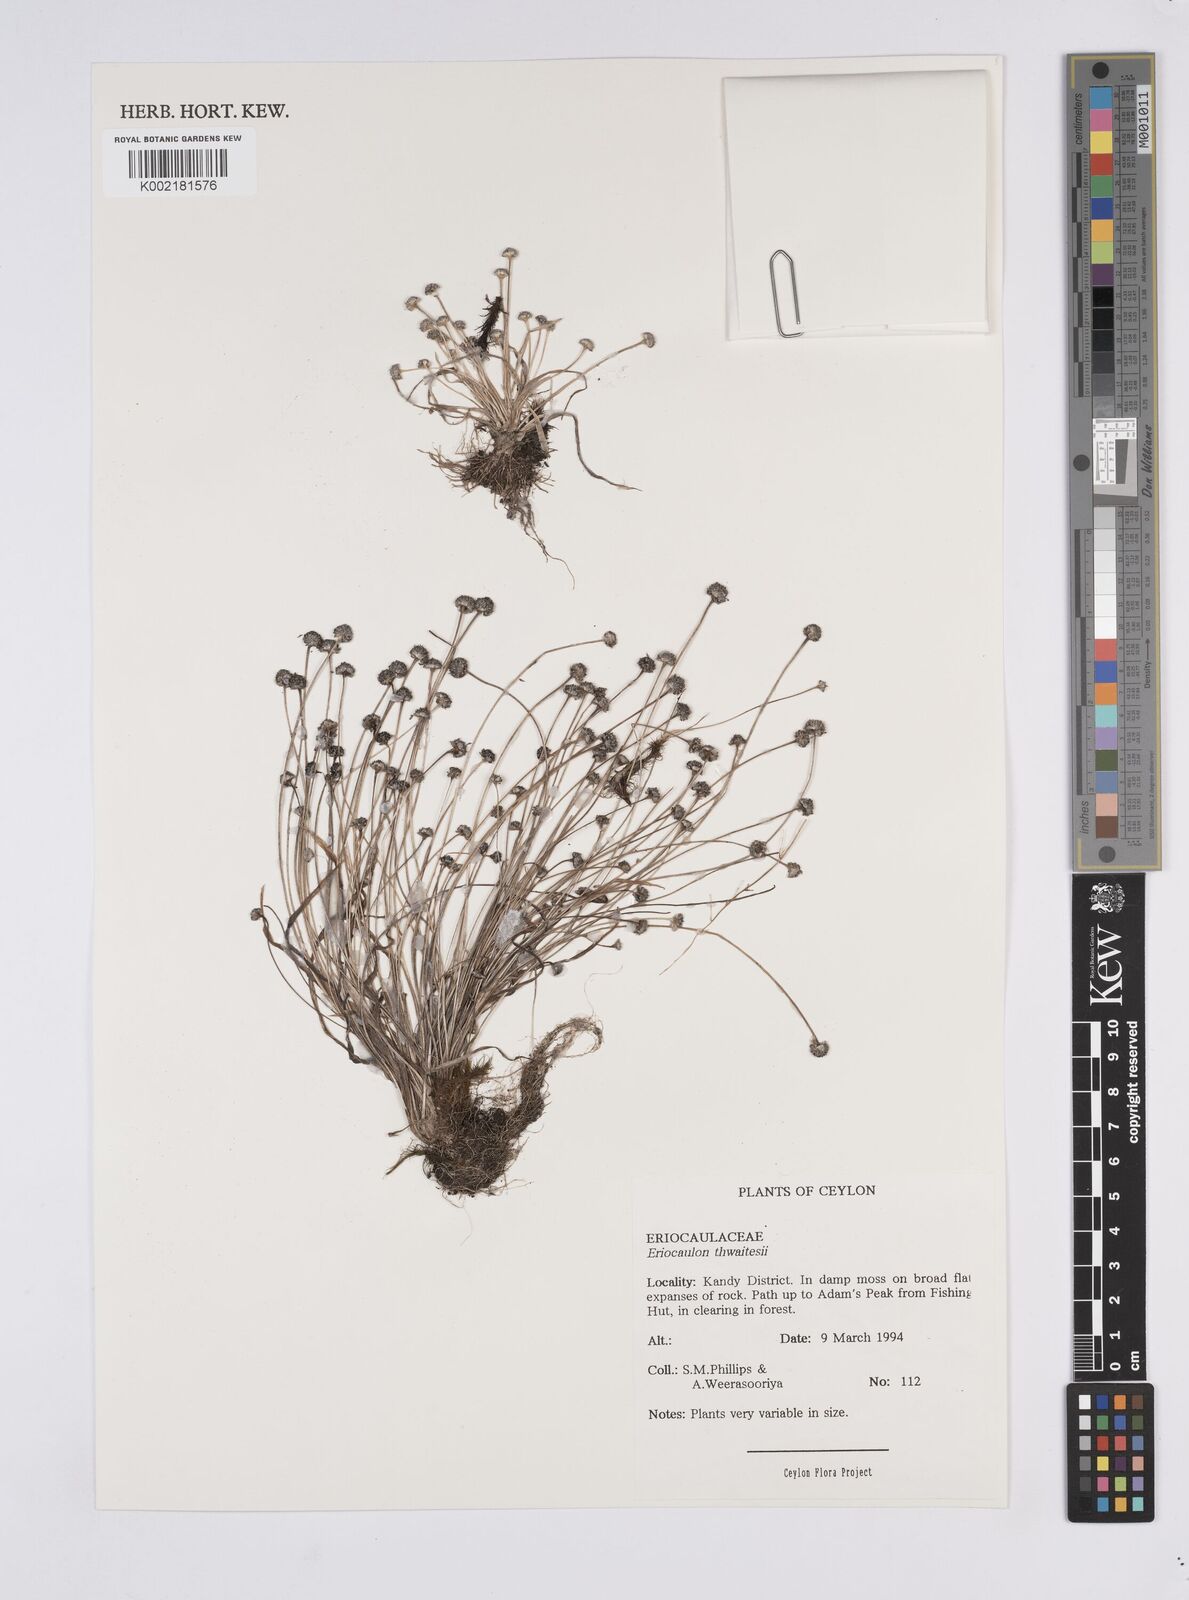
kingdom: Plantae
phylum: Tracheophyta
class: Liliopsida
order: Poales
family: Eriocaulaceae
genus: Eriocaulon
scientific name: Eriocaulon thwaitesii
